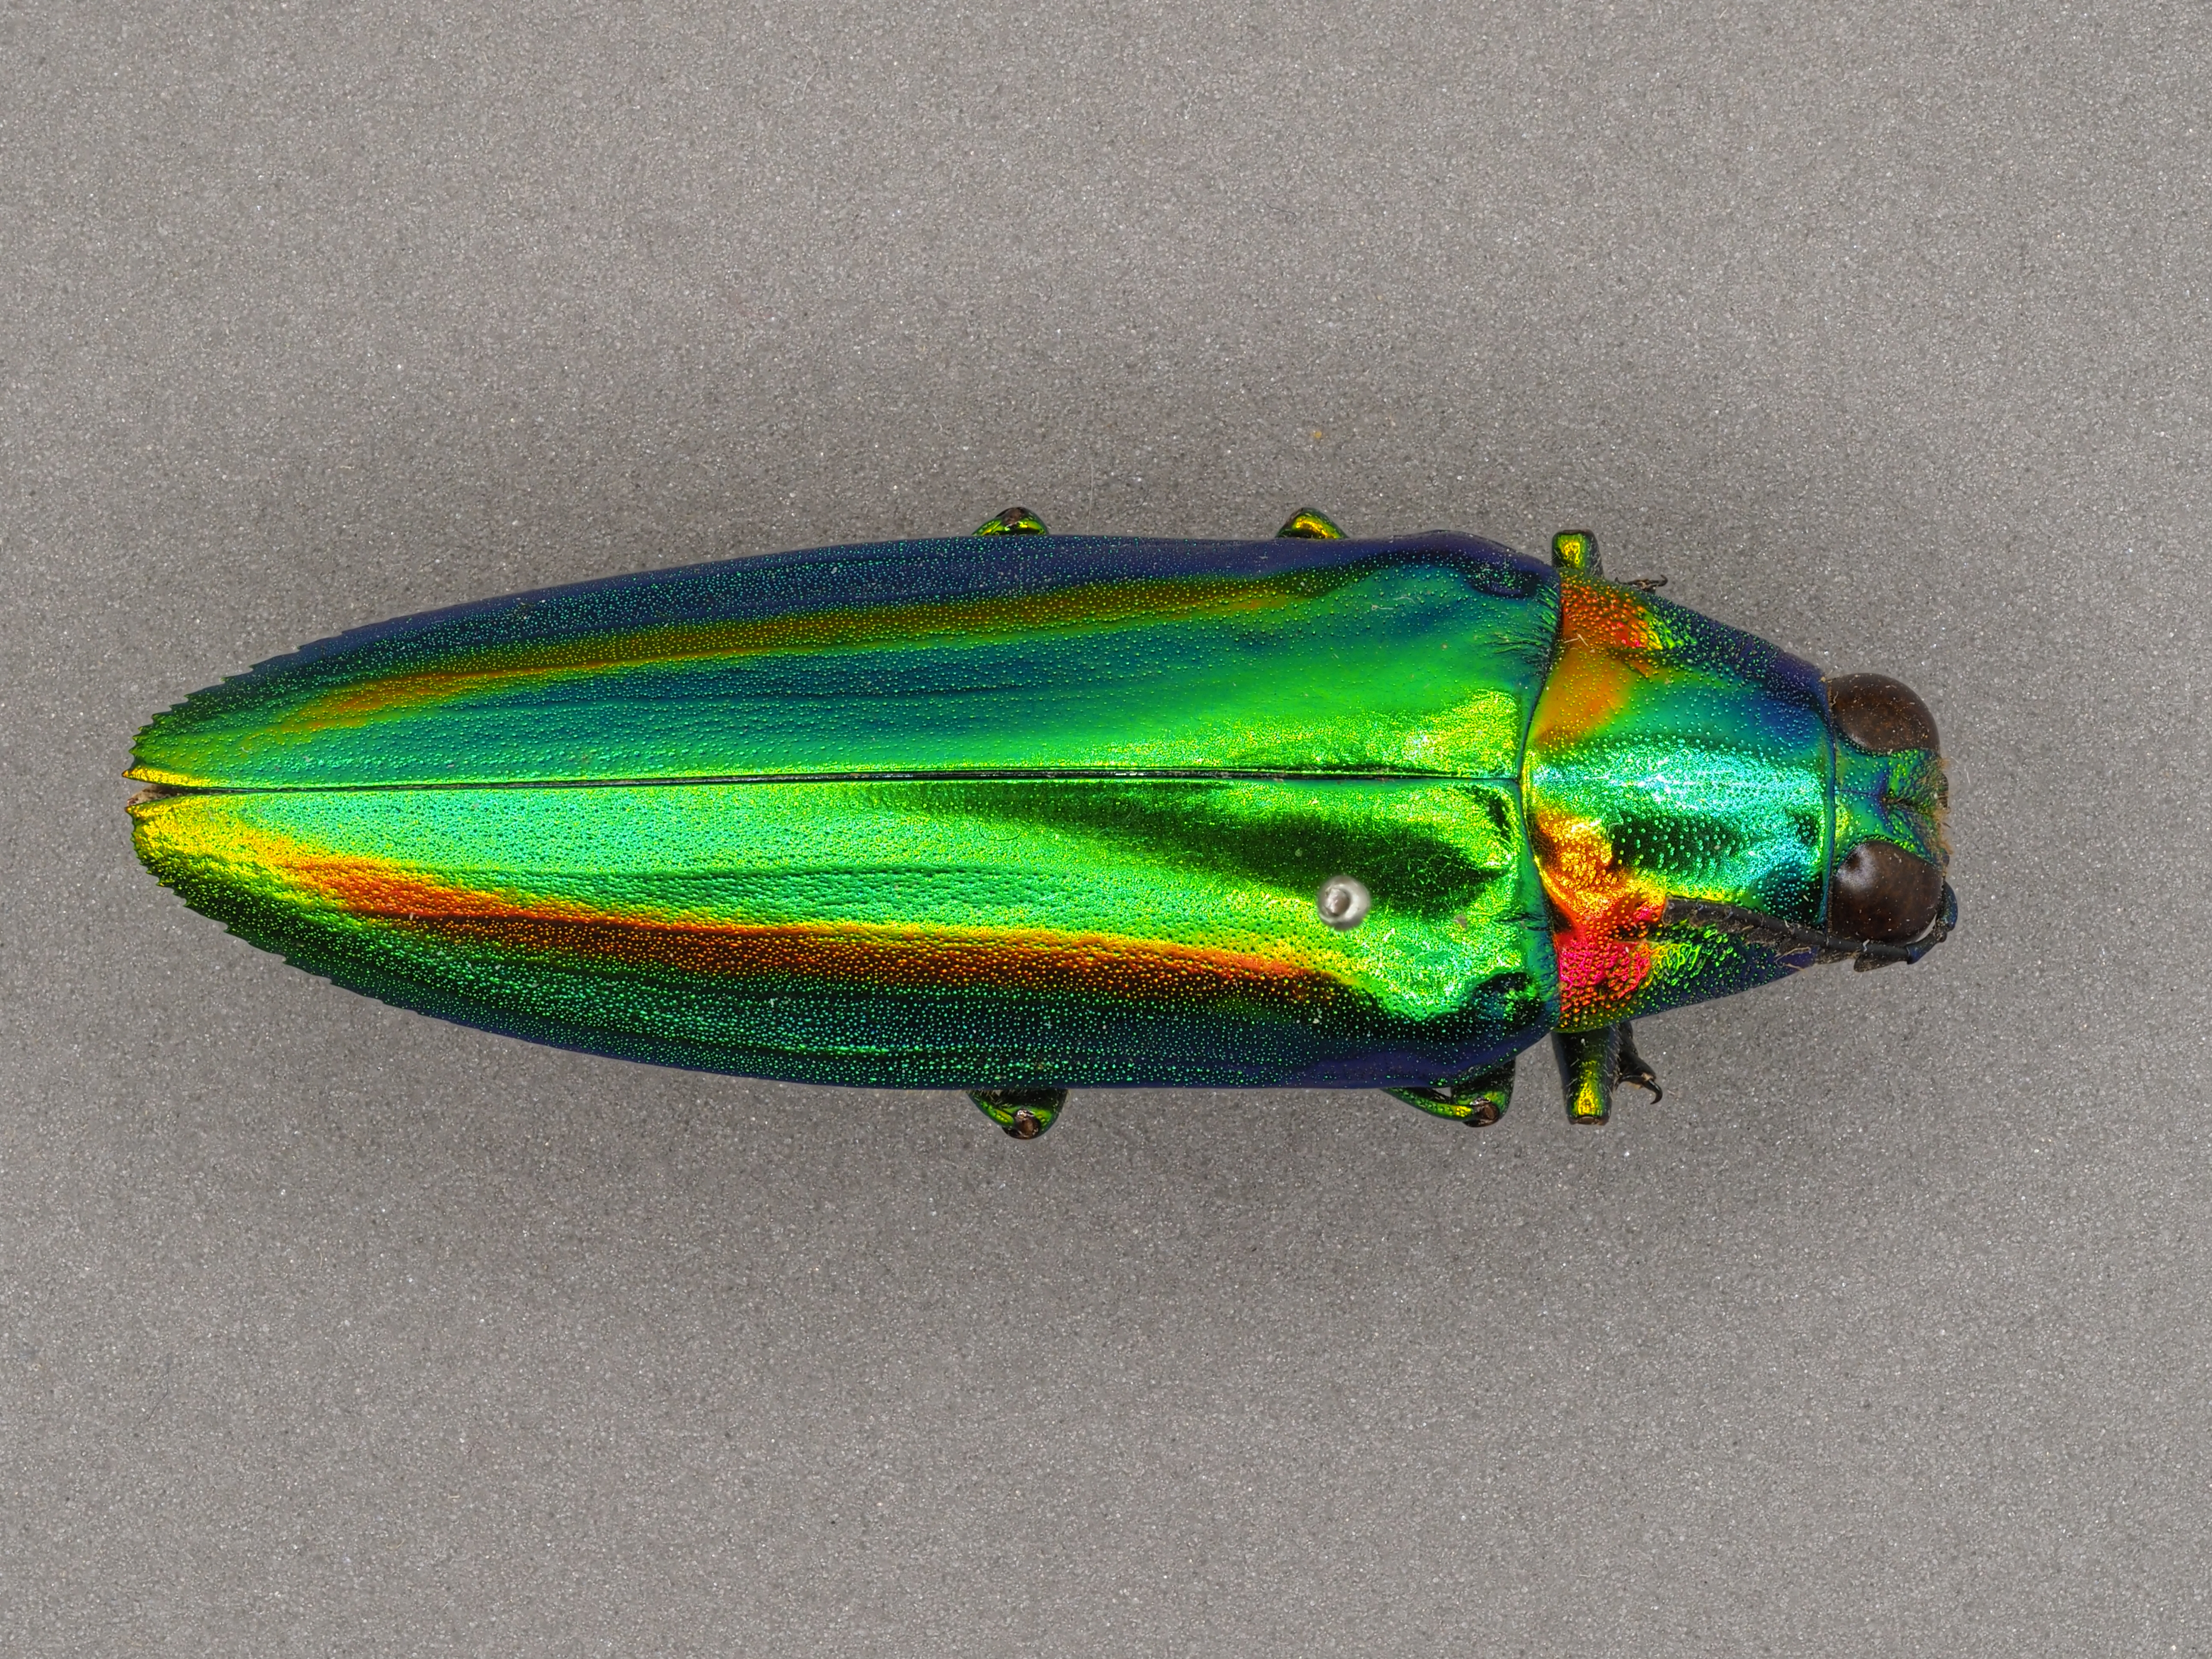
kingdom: Animalia
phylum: Arthropoda
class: Insecta
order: Coleoptera
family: Buprestidae
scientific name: Buprestidae
